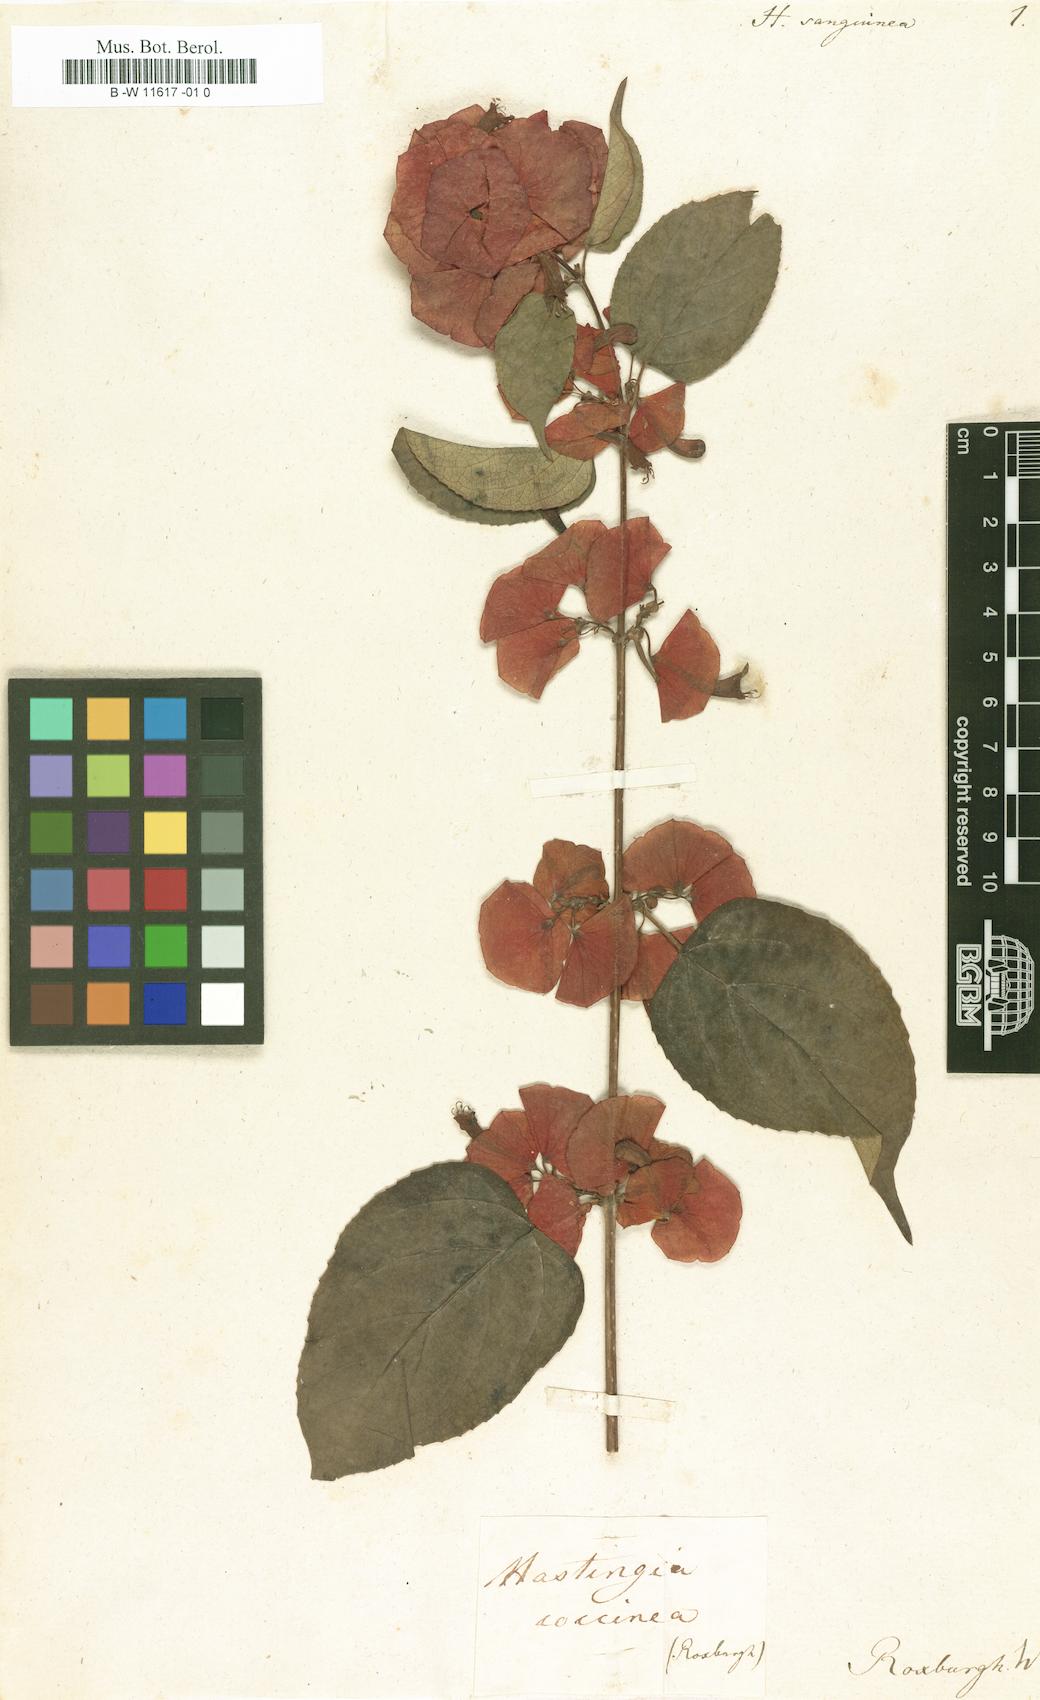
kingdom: Plantae
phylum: Tracheophyta
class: Magnoliopsida
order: Lamiales
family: Lamiaceae
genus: Holmskioldia
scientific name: Holmskioldia sanguinea
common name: Chinese hatplant
